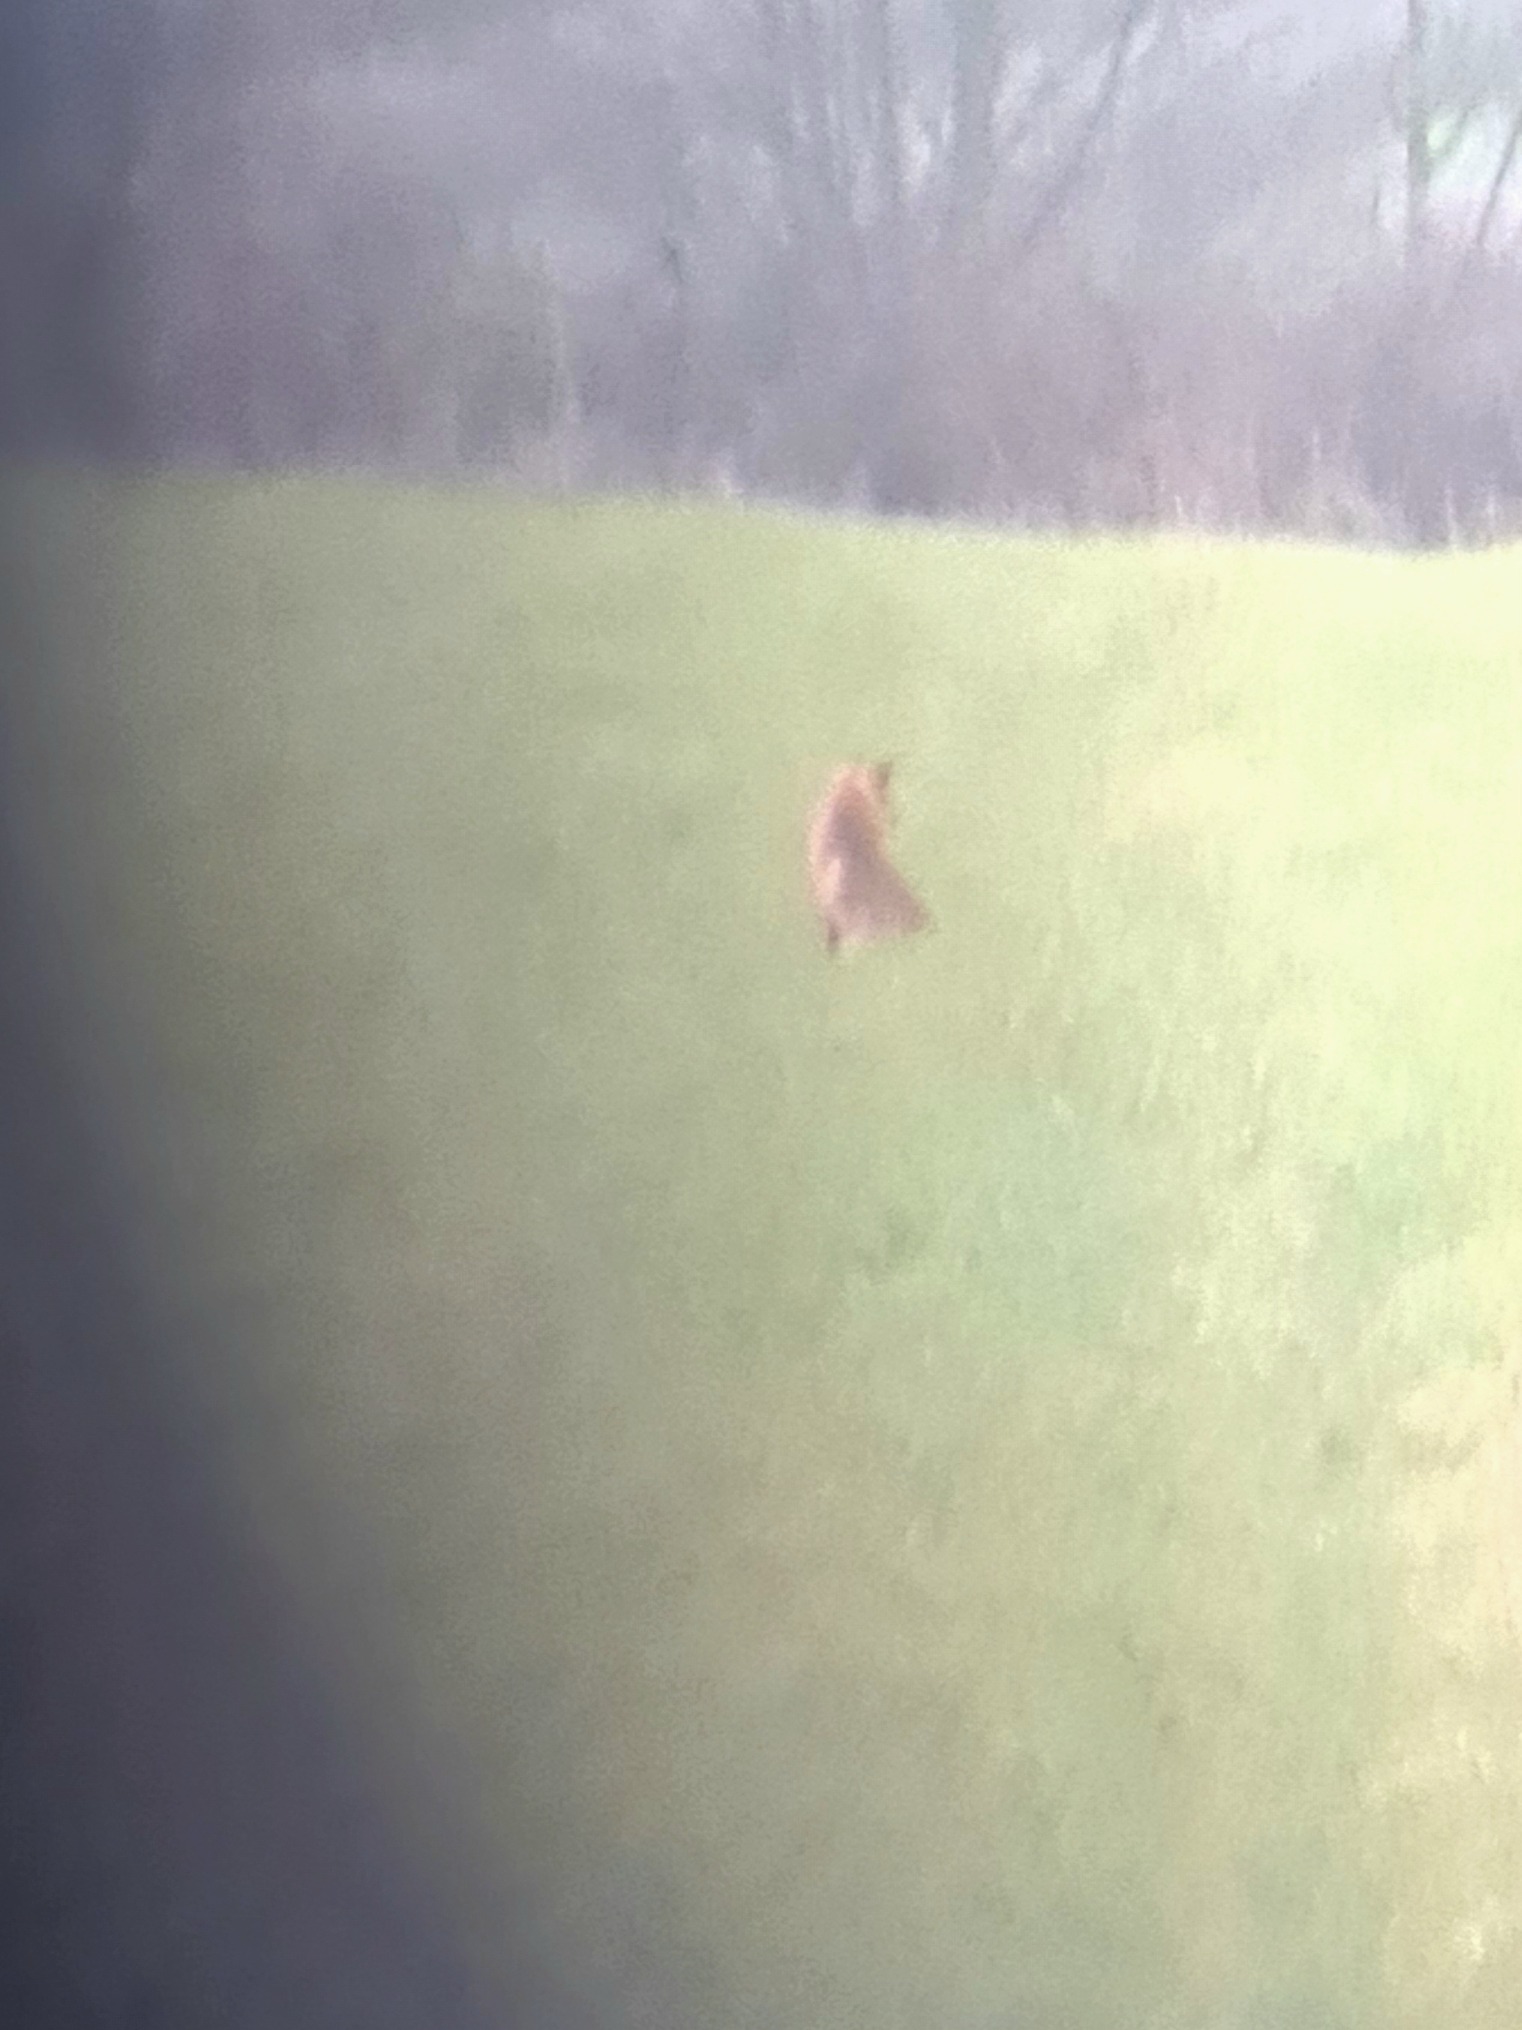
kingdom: Animalia
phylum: Chordata
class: Mammalia
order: Carnivora
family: Canidae
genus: Vulpes
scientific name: Vulpes vulpes
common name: Ræv
